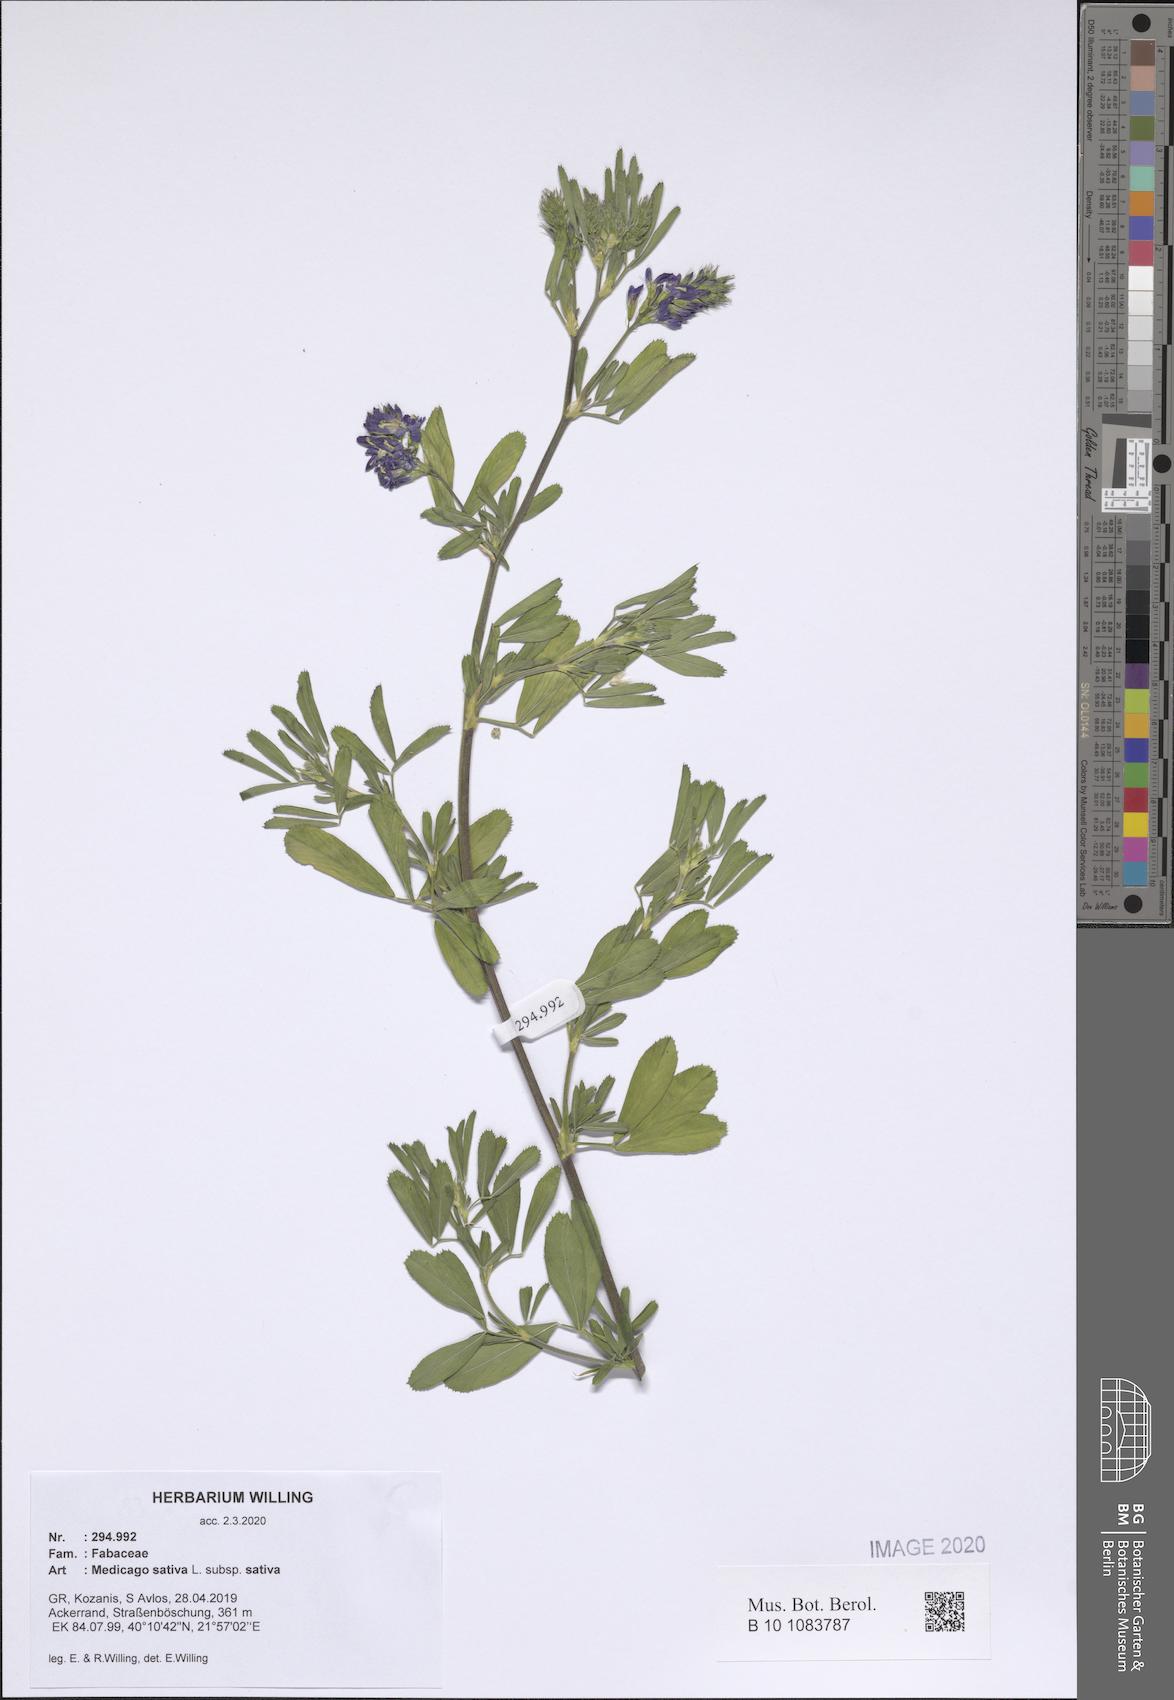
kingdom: Plantae
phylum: Tracheophyta
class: Magnoliopsida
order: Fabales
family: Fabaceae
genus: Medicago
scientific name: Medicago sativa
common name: Alfalfa
